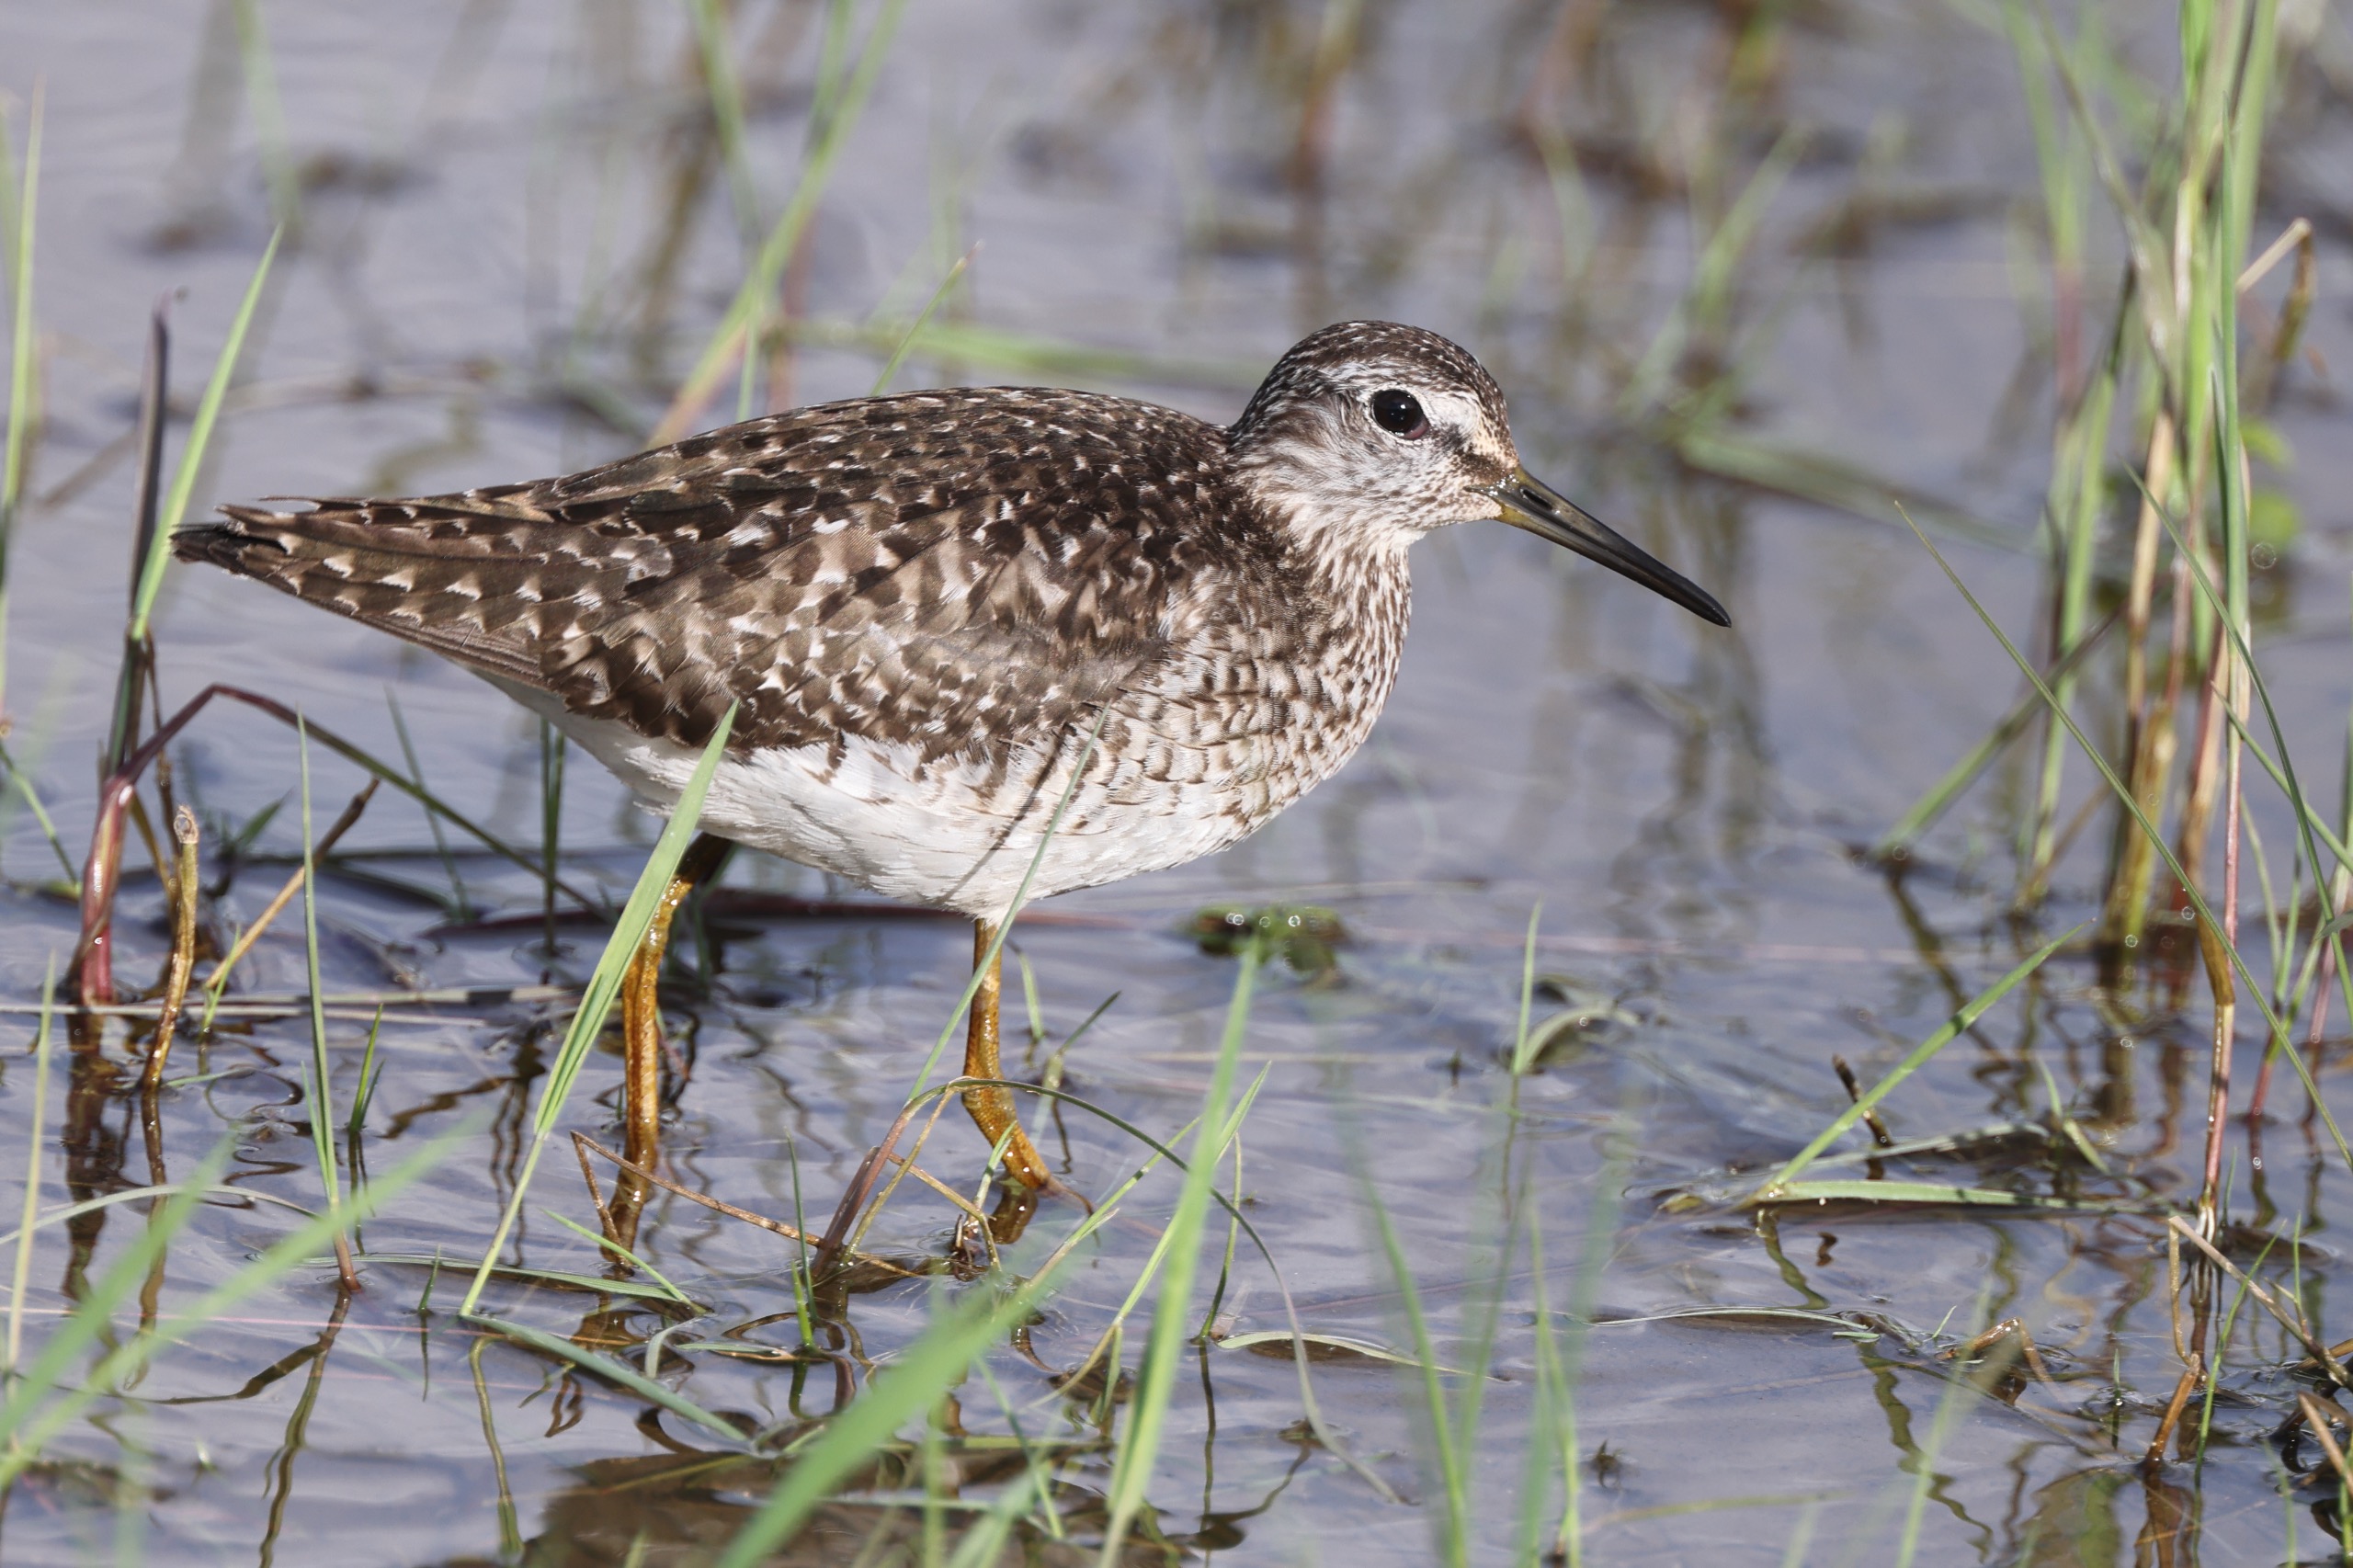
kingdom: Animalia
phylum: Chordata
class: Aves
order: Charadriiformes
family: Scolopacidae
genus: Tringa
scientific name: Tringa glareola
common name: Tinksmed
